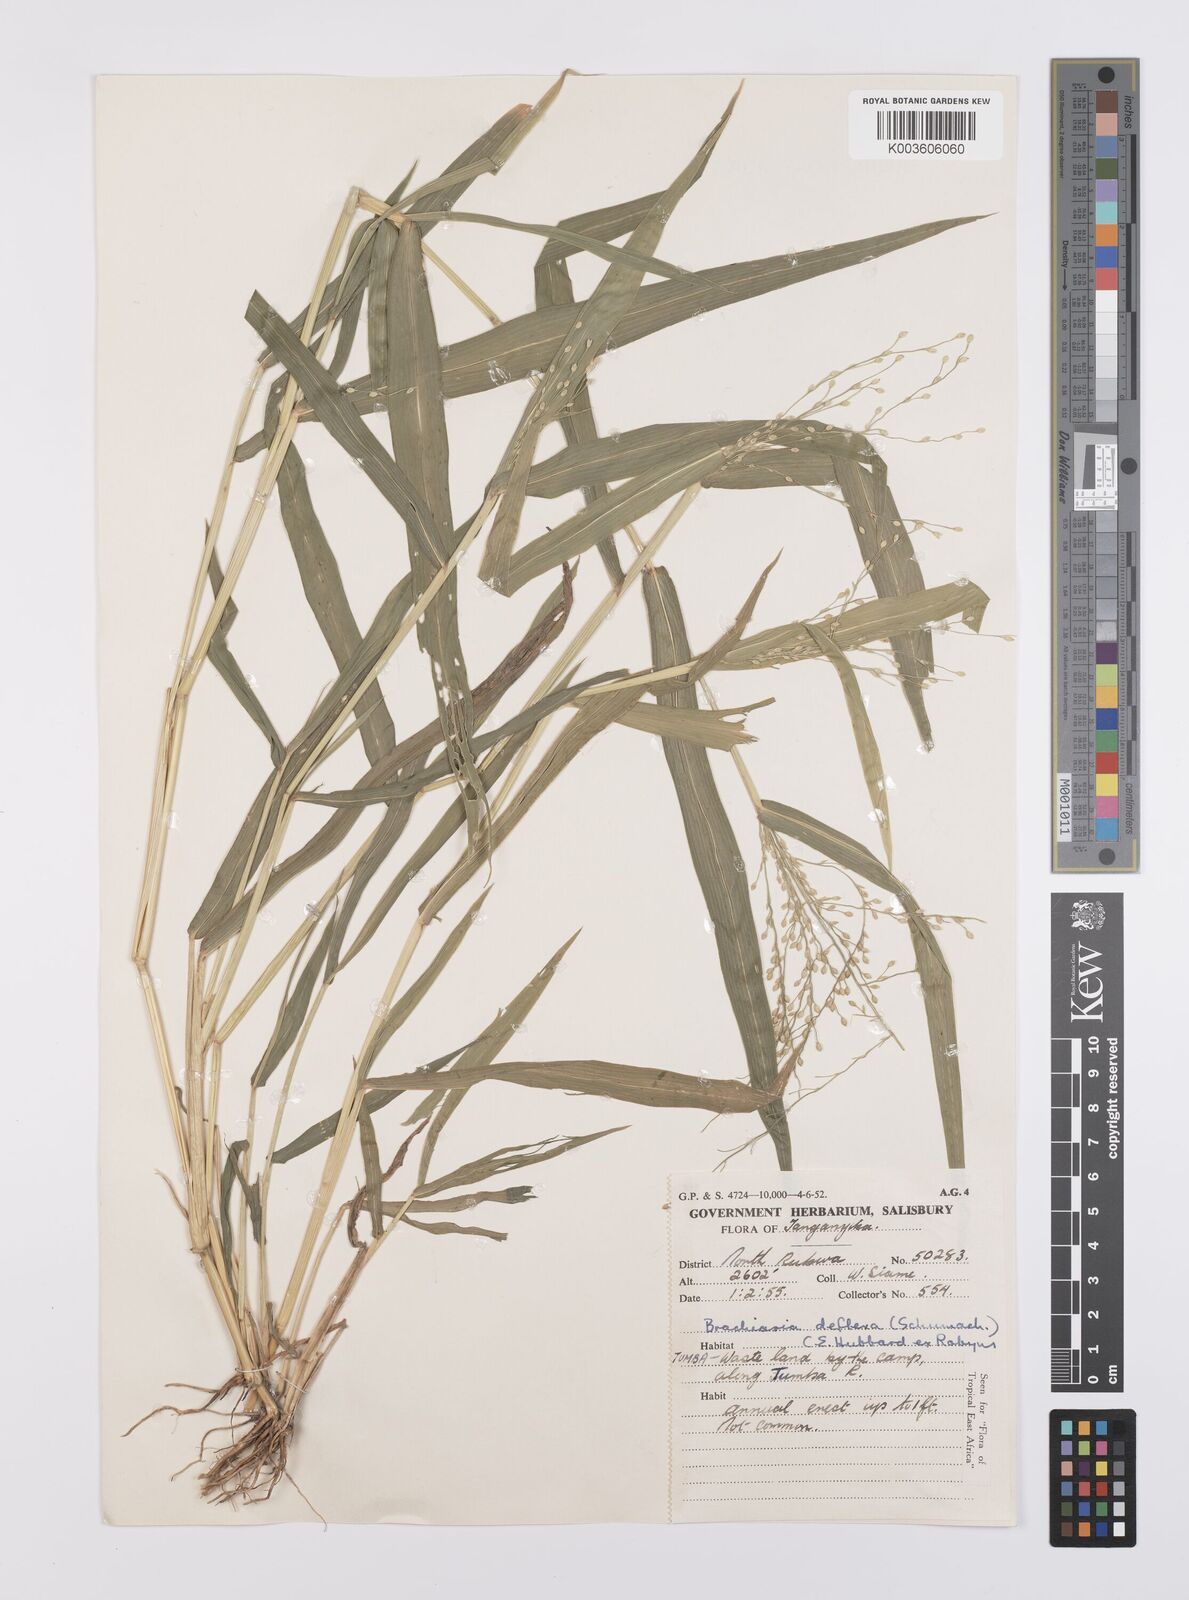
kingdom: Plantae
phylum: Tracheophyta
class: Liliopsida
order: Poales
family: Poaceae
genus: Urochloa
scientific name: Urochloa deflexa
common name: Guinea millet
